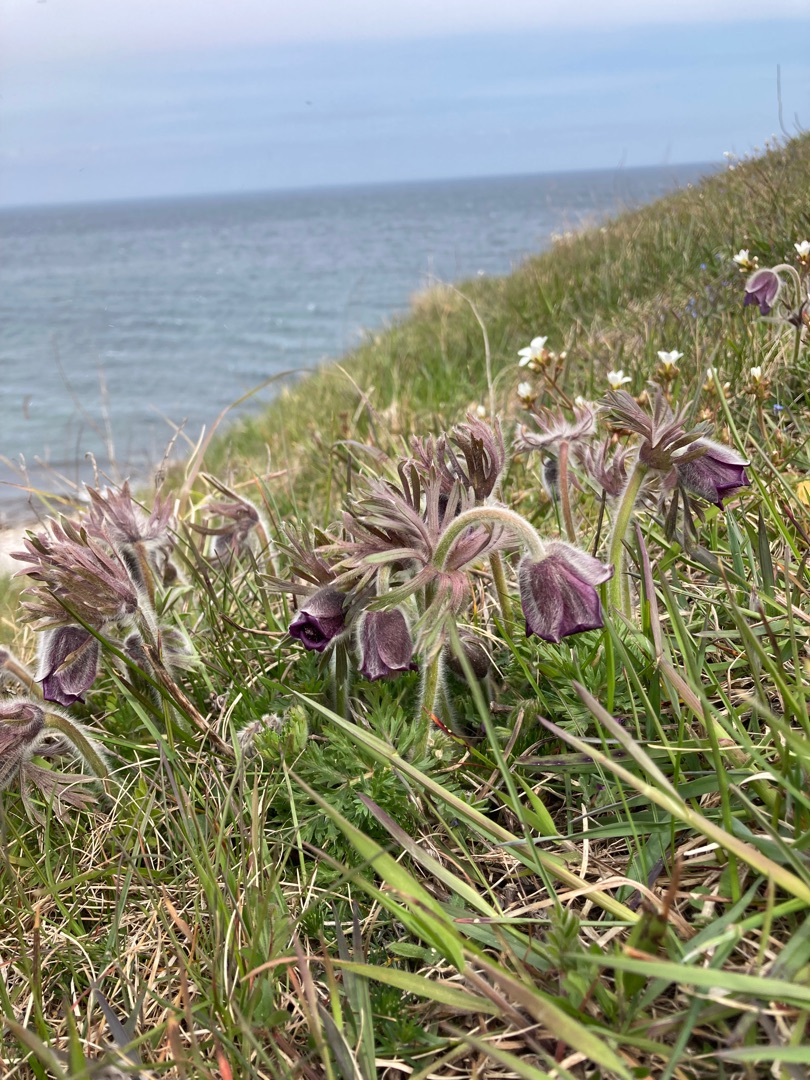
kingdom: Plantae
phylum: Tracheophyta
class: Magnoliopsida
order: Ranunculales
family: Ranunculaceae
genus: Pulsatilla
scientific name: Pulsatilla pratensis
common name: Nikkende kobjælde
